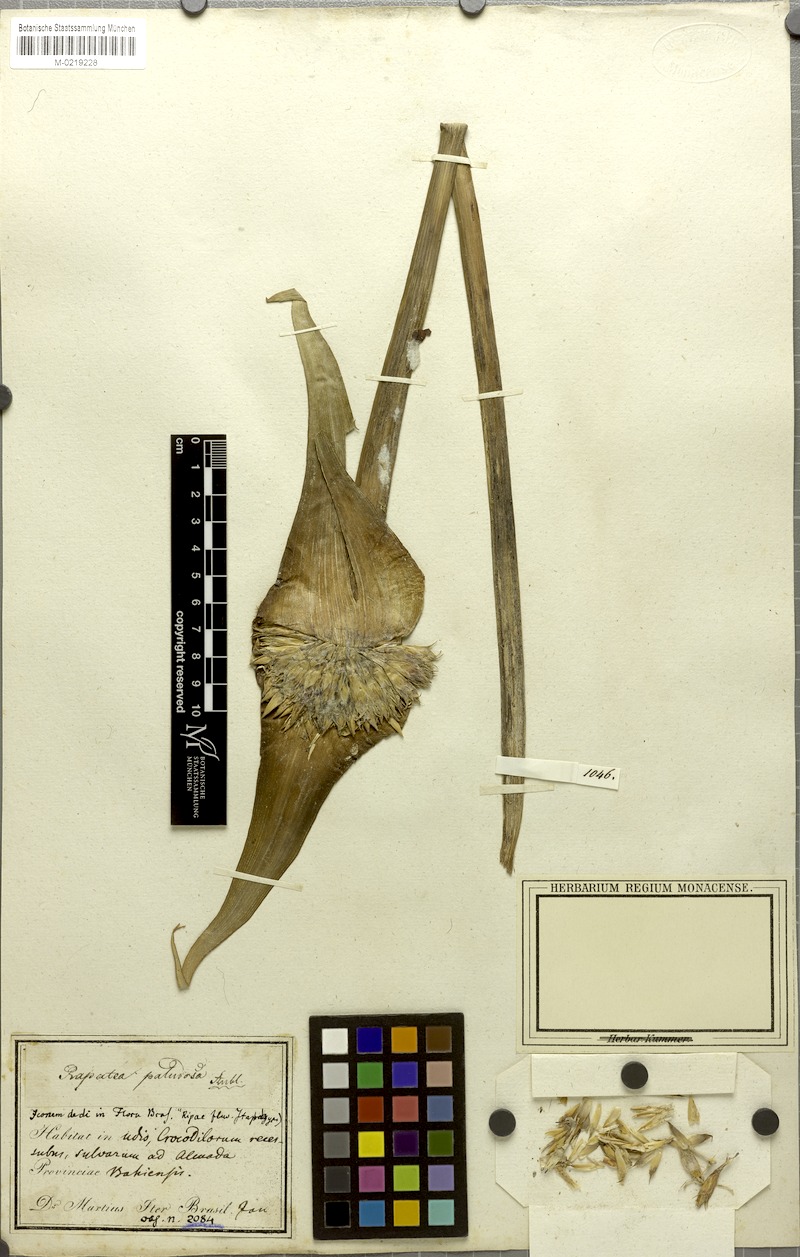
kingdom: Plantae
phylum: Tracheophyta
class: Liliopsida
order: Poales
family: Rapateaceae
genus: Rapatea
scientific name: Rapatea paludosa
